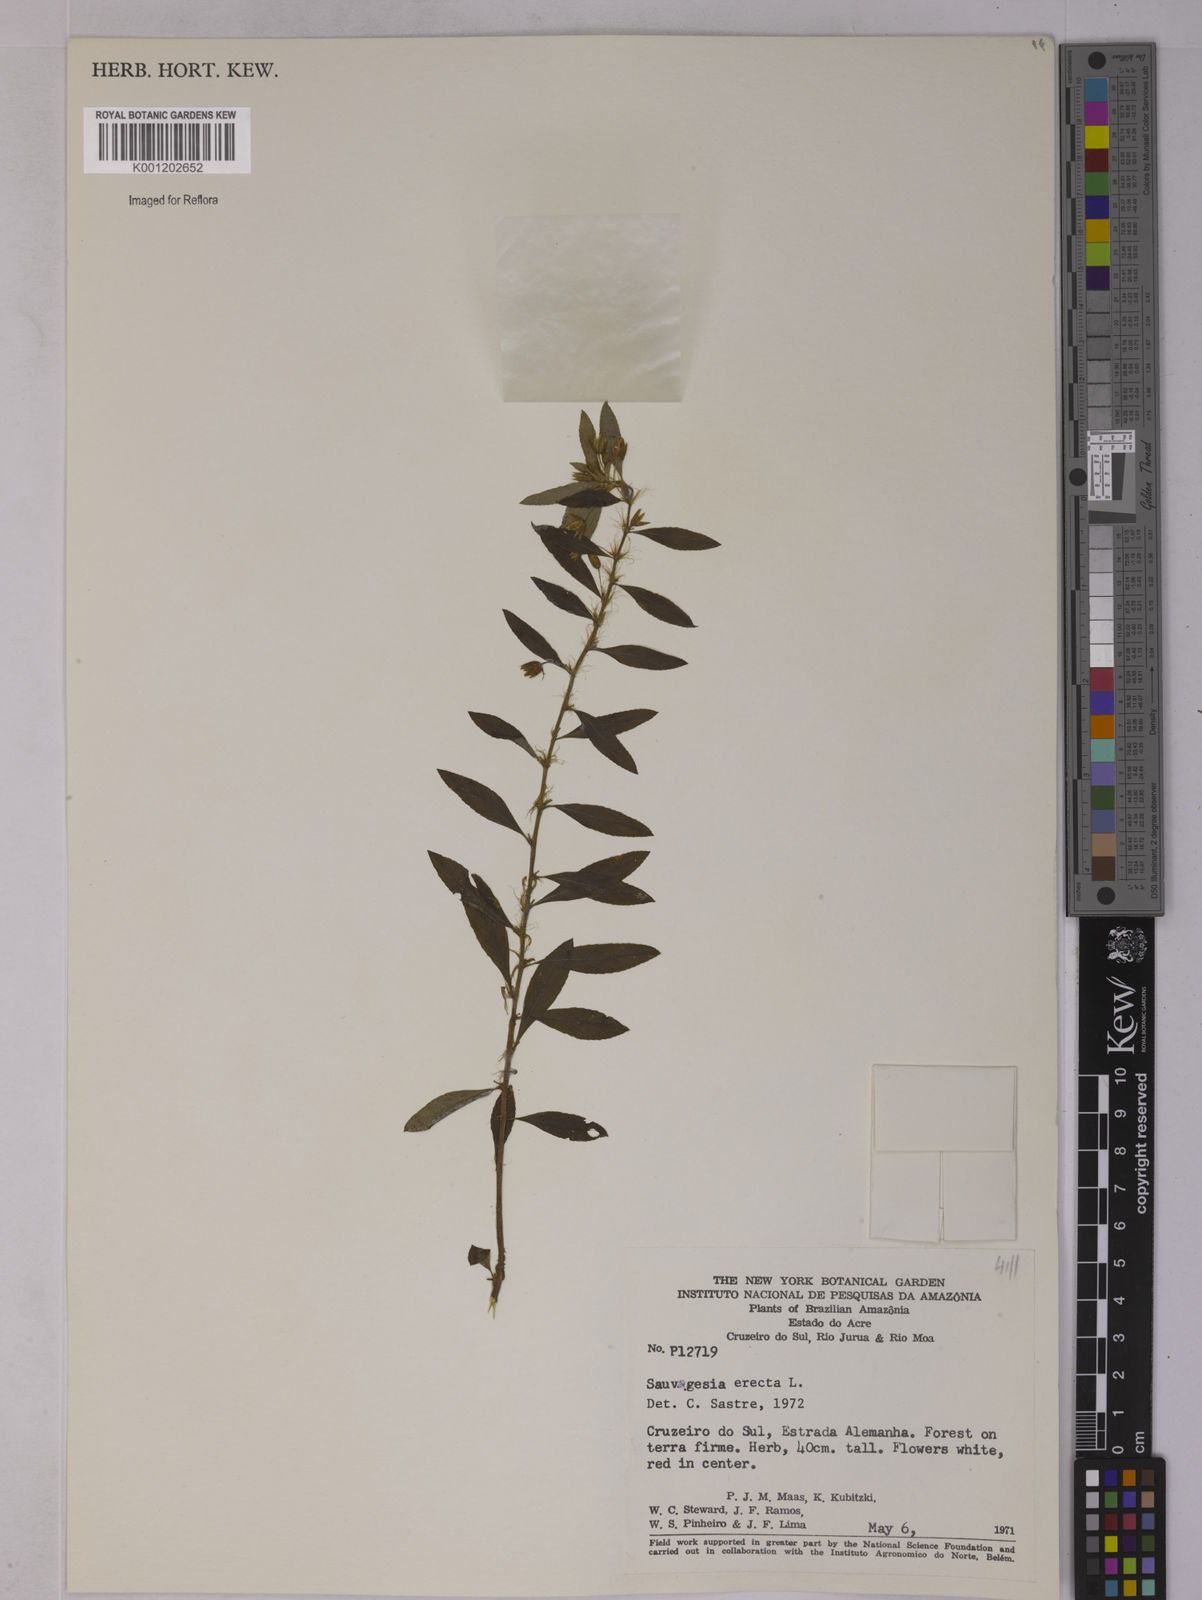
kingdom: Plantae
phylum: Tracheophyta
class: Magnoliopsida
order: Malpighiales
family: Ochnaceae
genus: Sauvagesia
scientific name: Sauvagesia erecta
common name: Creole tea
